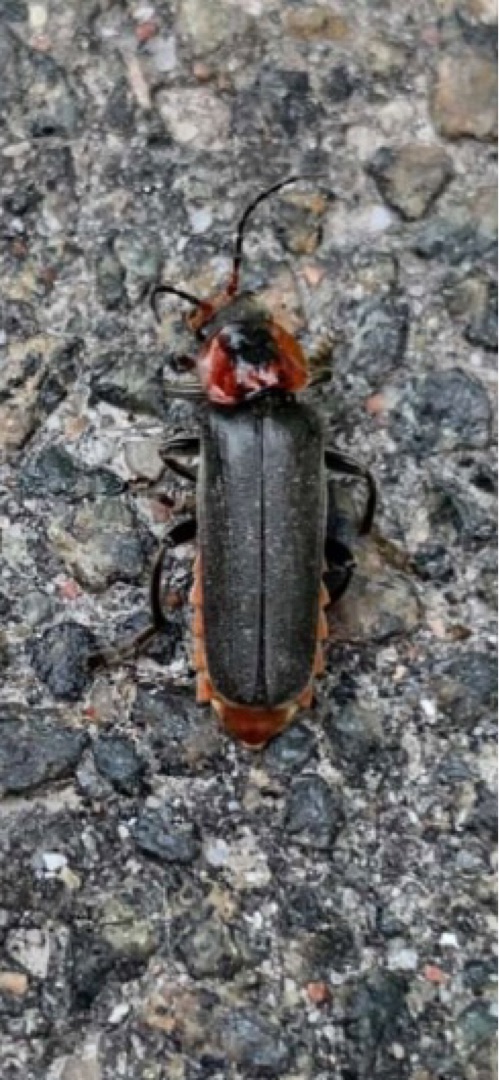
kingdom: Animalia
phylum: Arthropoda
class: Insecta
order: Coleoptera
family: Cantharidae
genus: Cantharis
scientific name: Cantharis fusca
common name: Stor blødvinge
